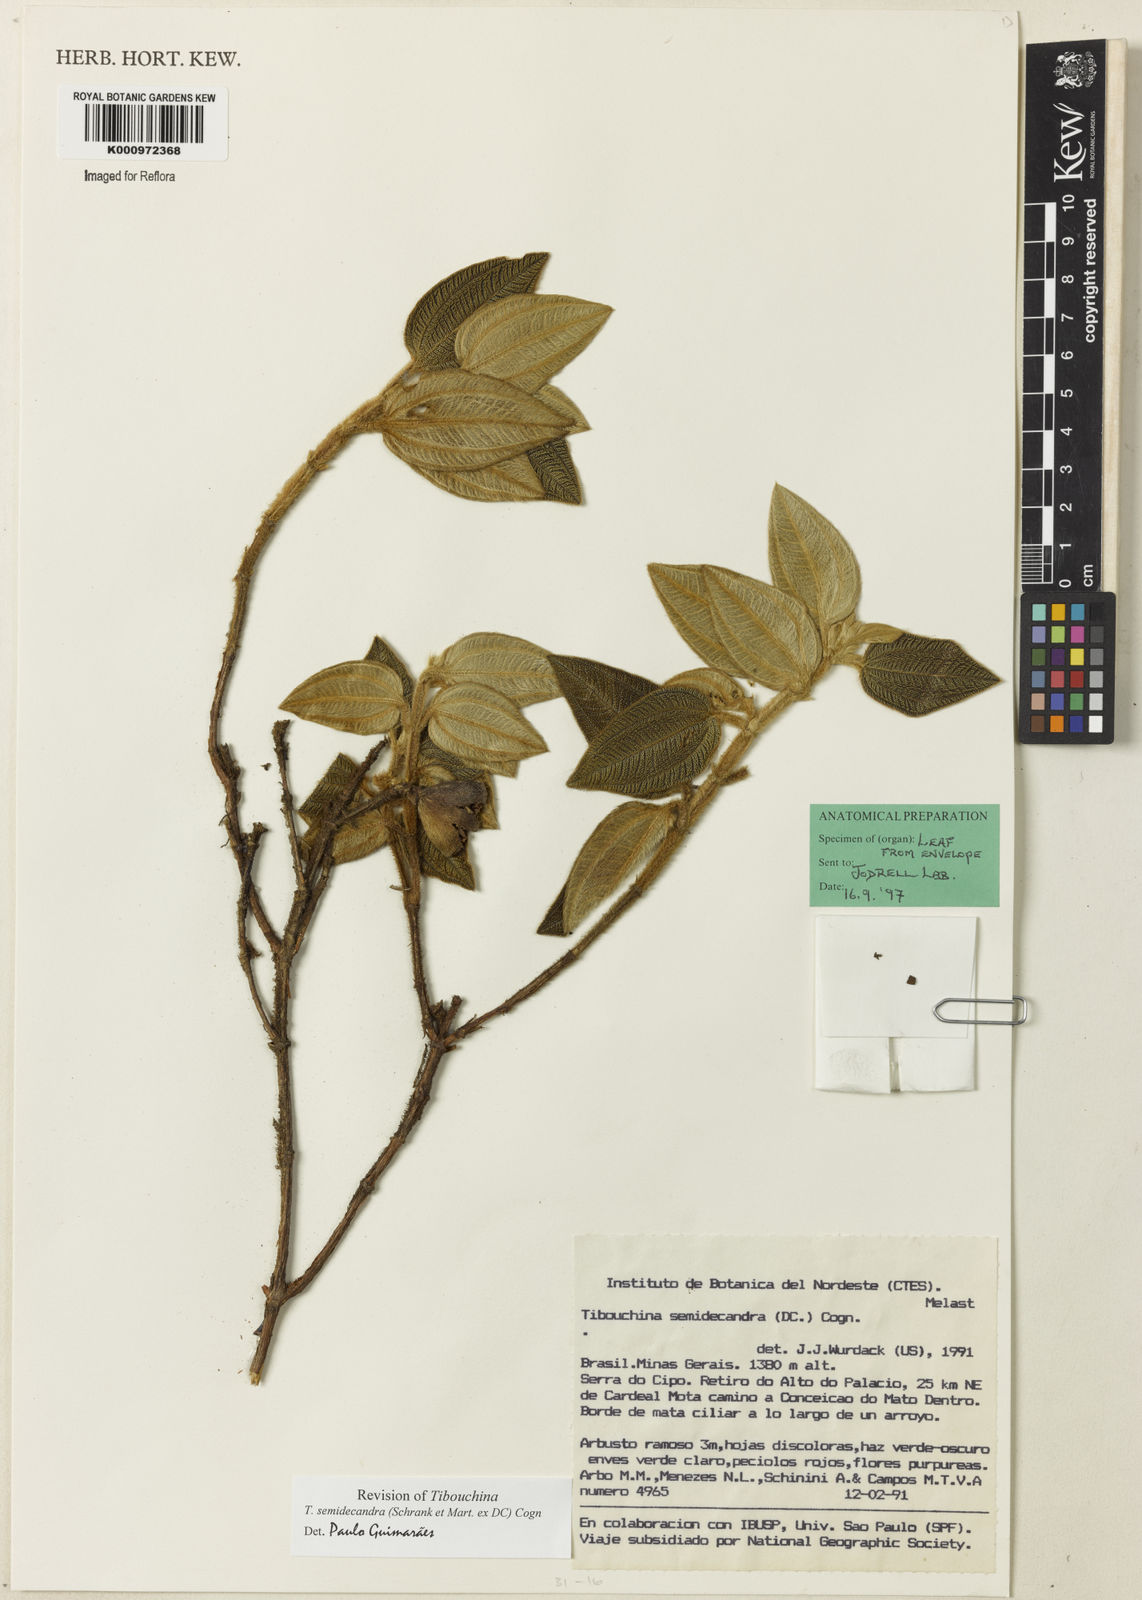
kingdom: Plantae
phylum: Tracheophyta
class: Magnoliopsida
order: Myrtales
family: Melastomataceae
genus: Pleroma
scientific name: Pleroma semidecandrum
